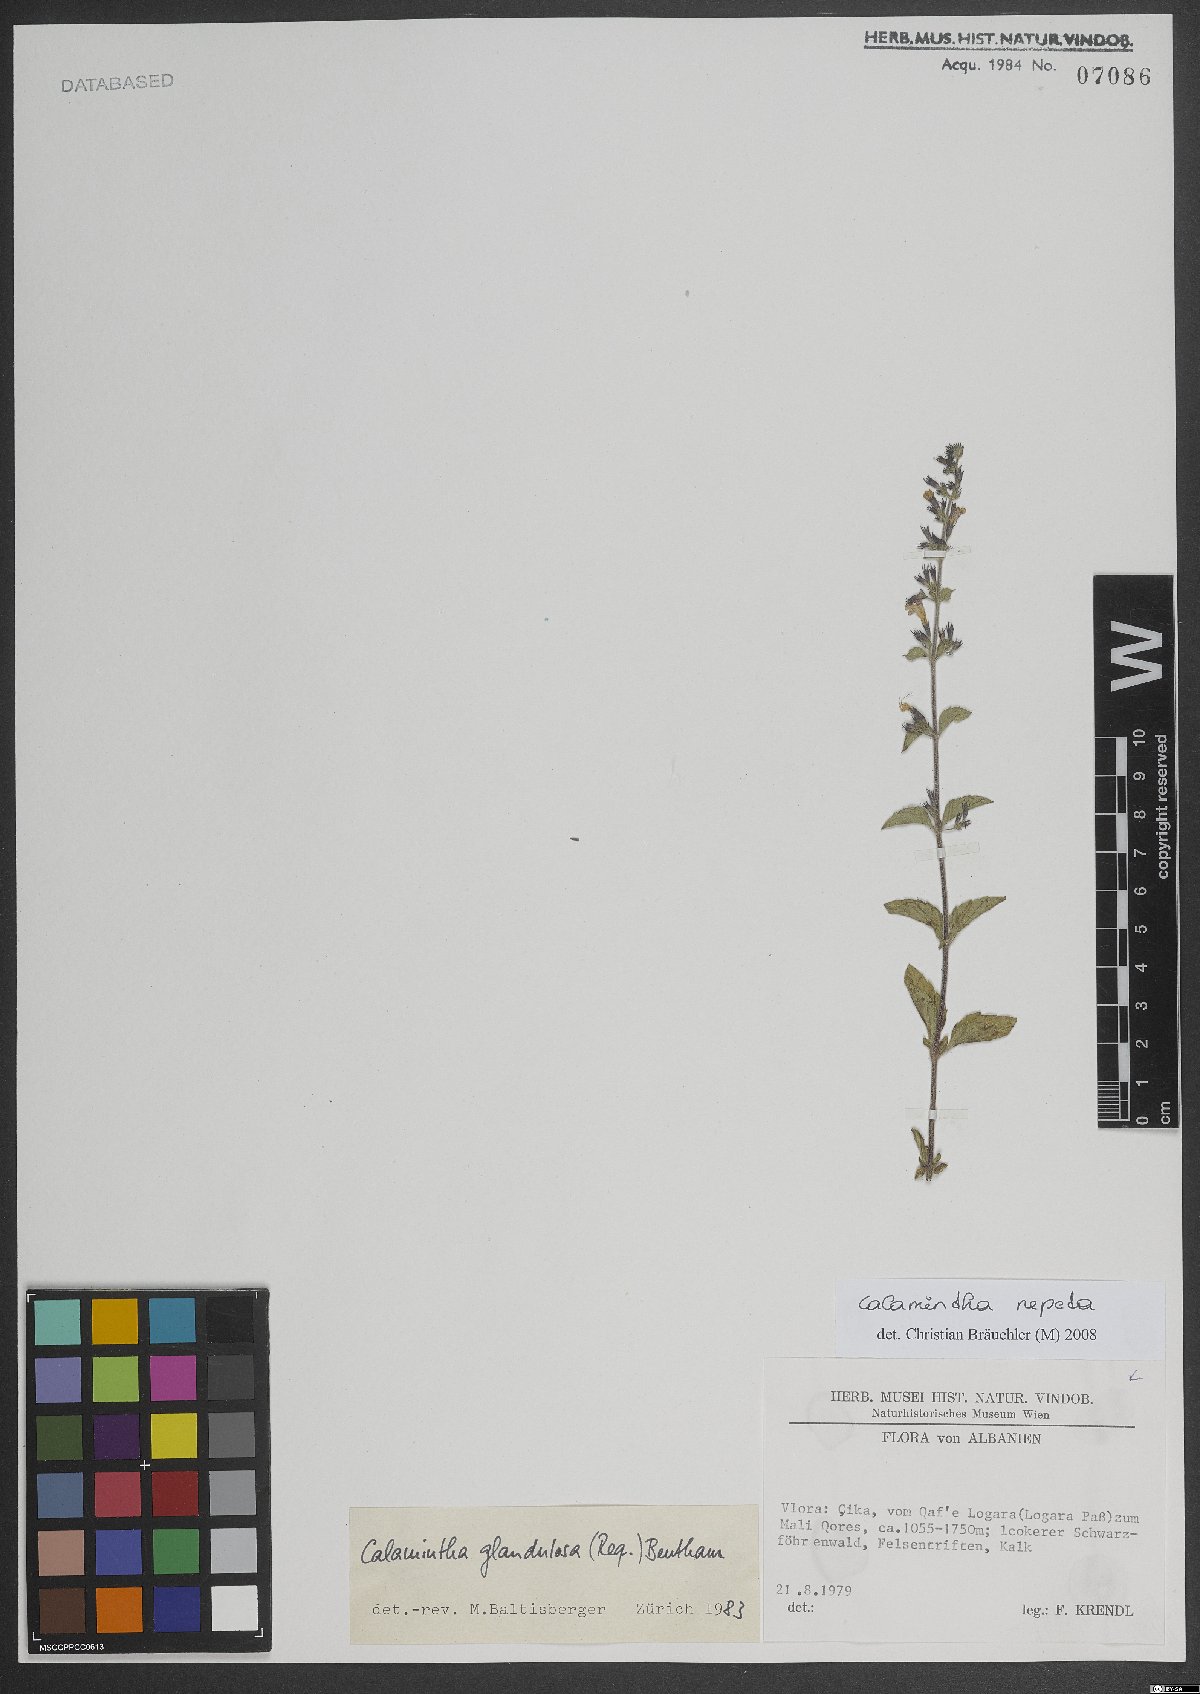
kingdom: Plantae
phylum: Tracheophyta
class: Magnoliopsida
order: Lamiales
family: Lamiaceae
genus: Clinopodium
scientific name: Clinopodium nepeta
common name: Lesser calamint
